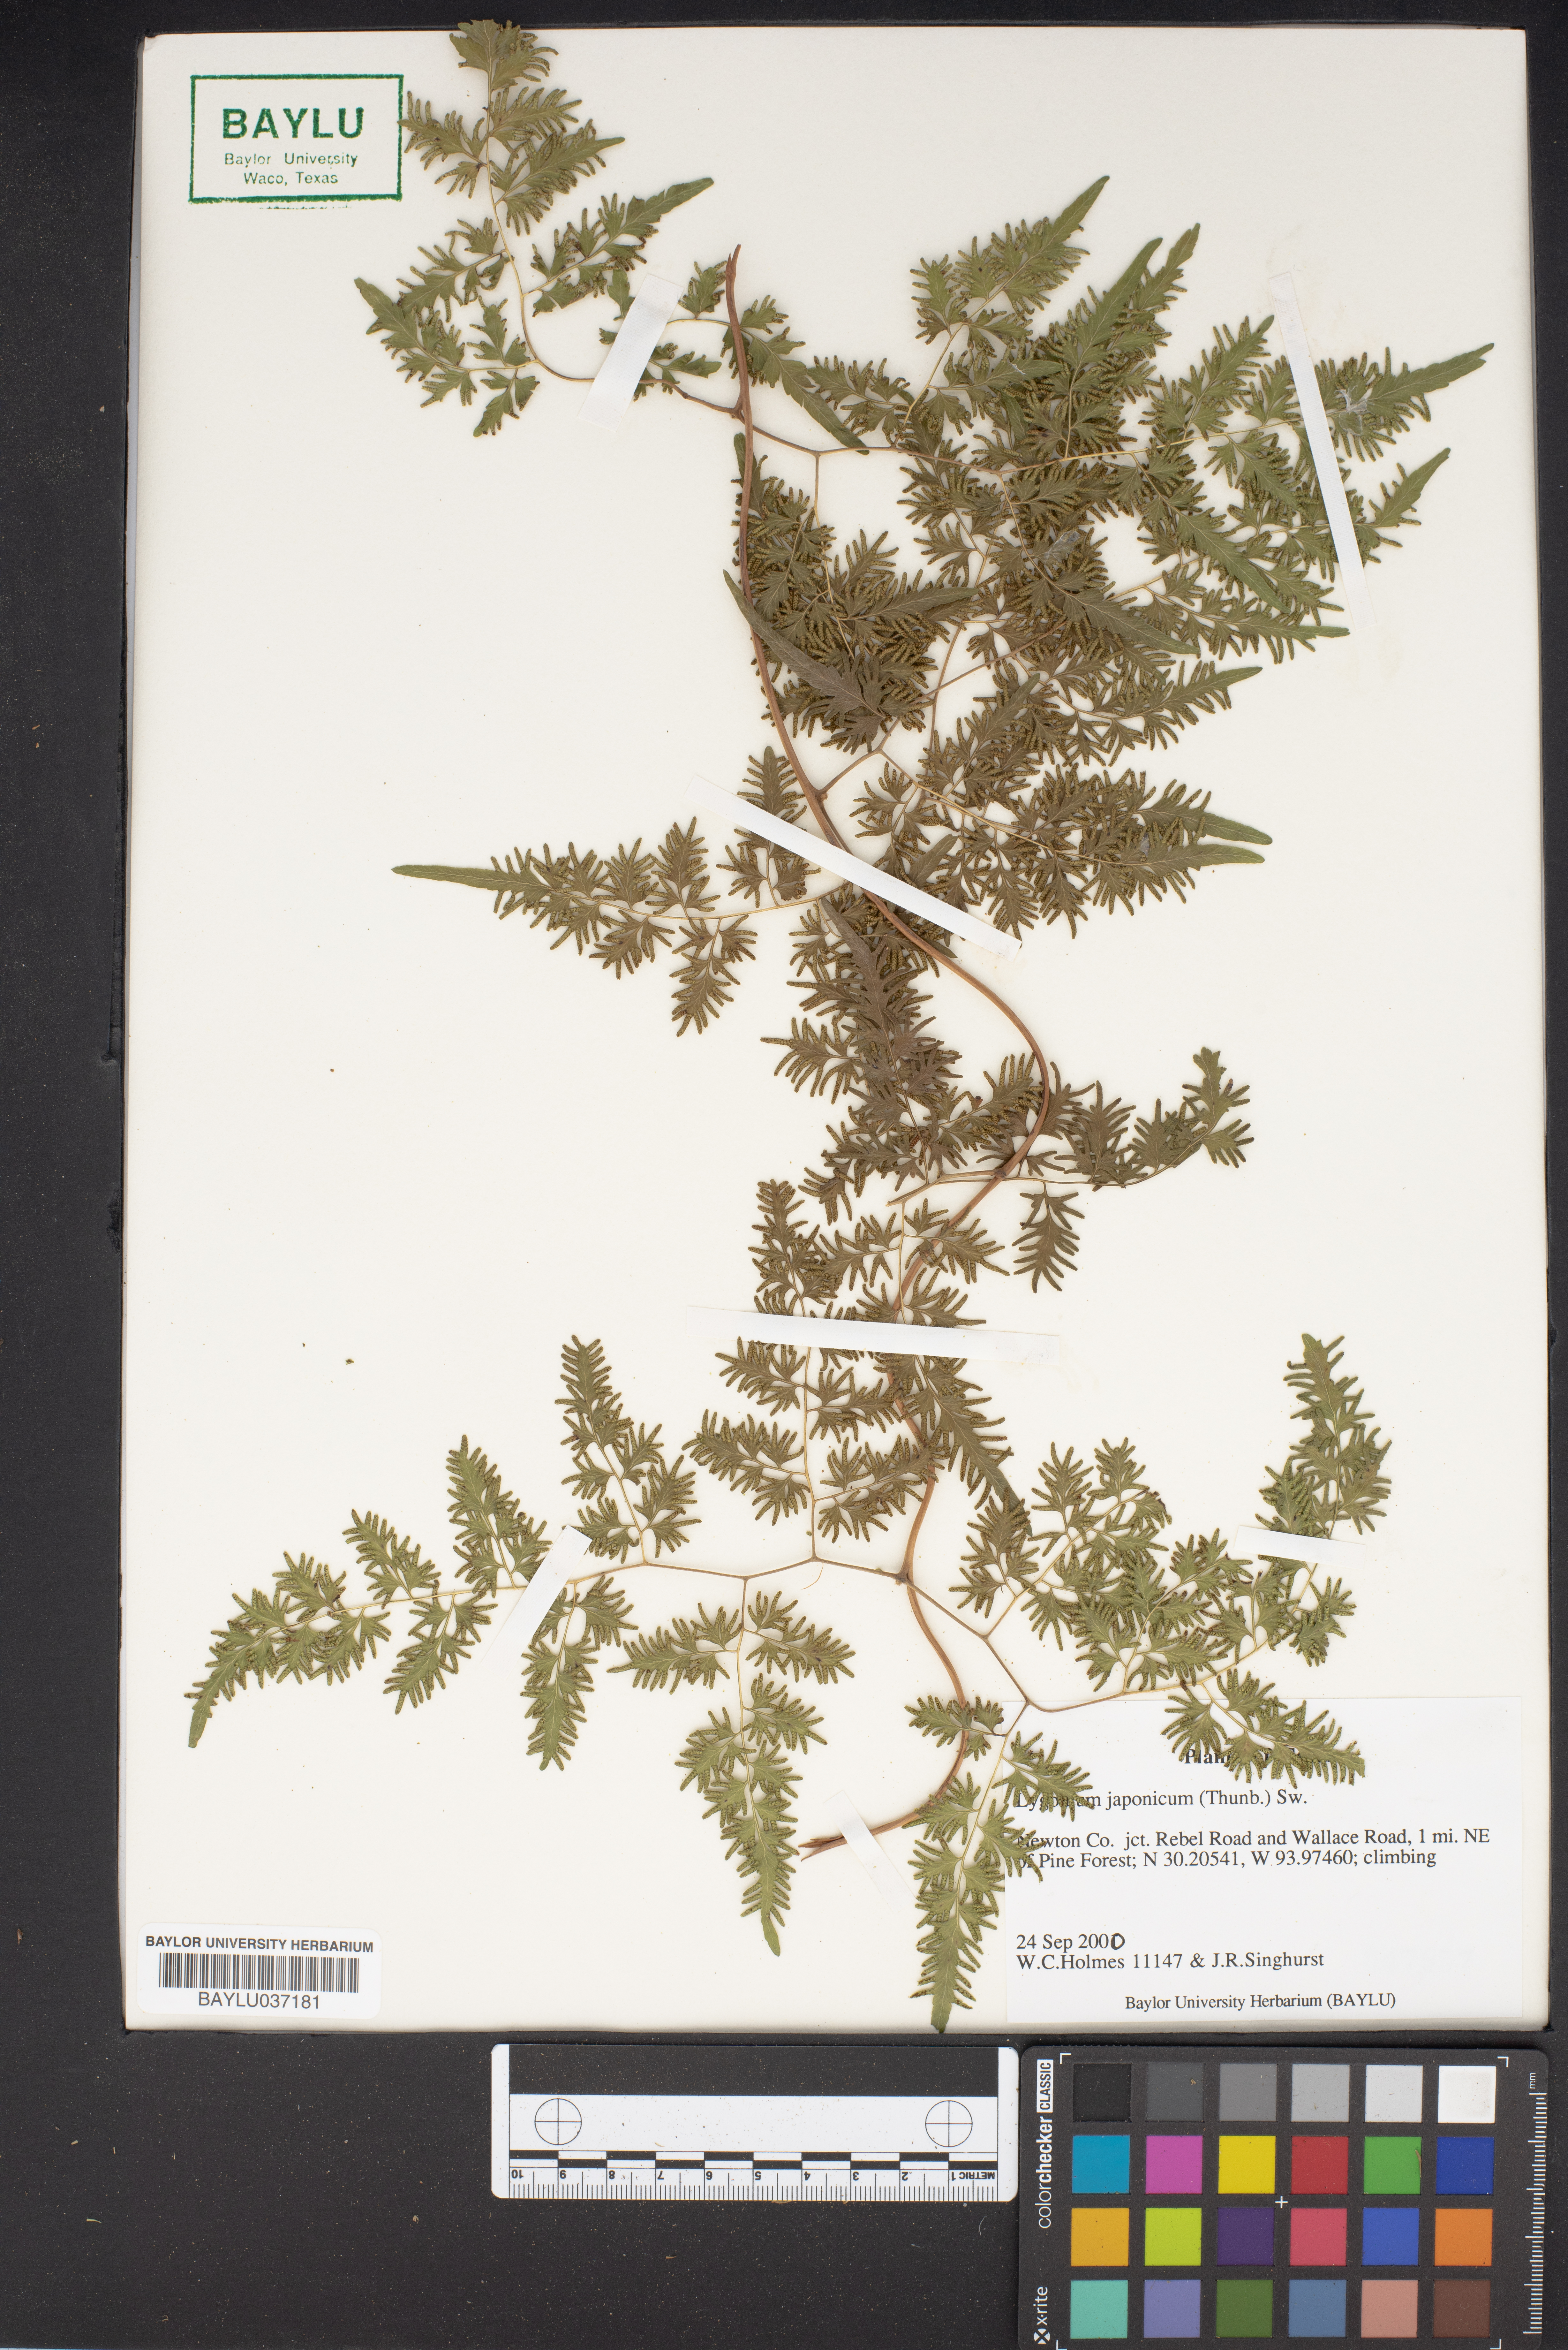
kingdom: Plantae
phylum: Tracheophyta
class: Polypodiopsida
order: Schizaeales
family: Lygodiaceae
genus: Lygodium
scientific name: Lygodium japonicum
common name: Japanese climbing fern
